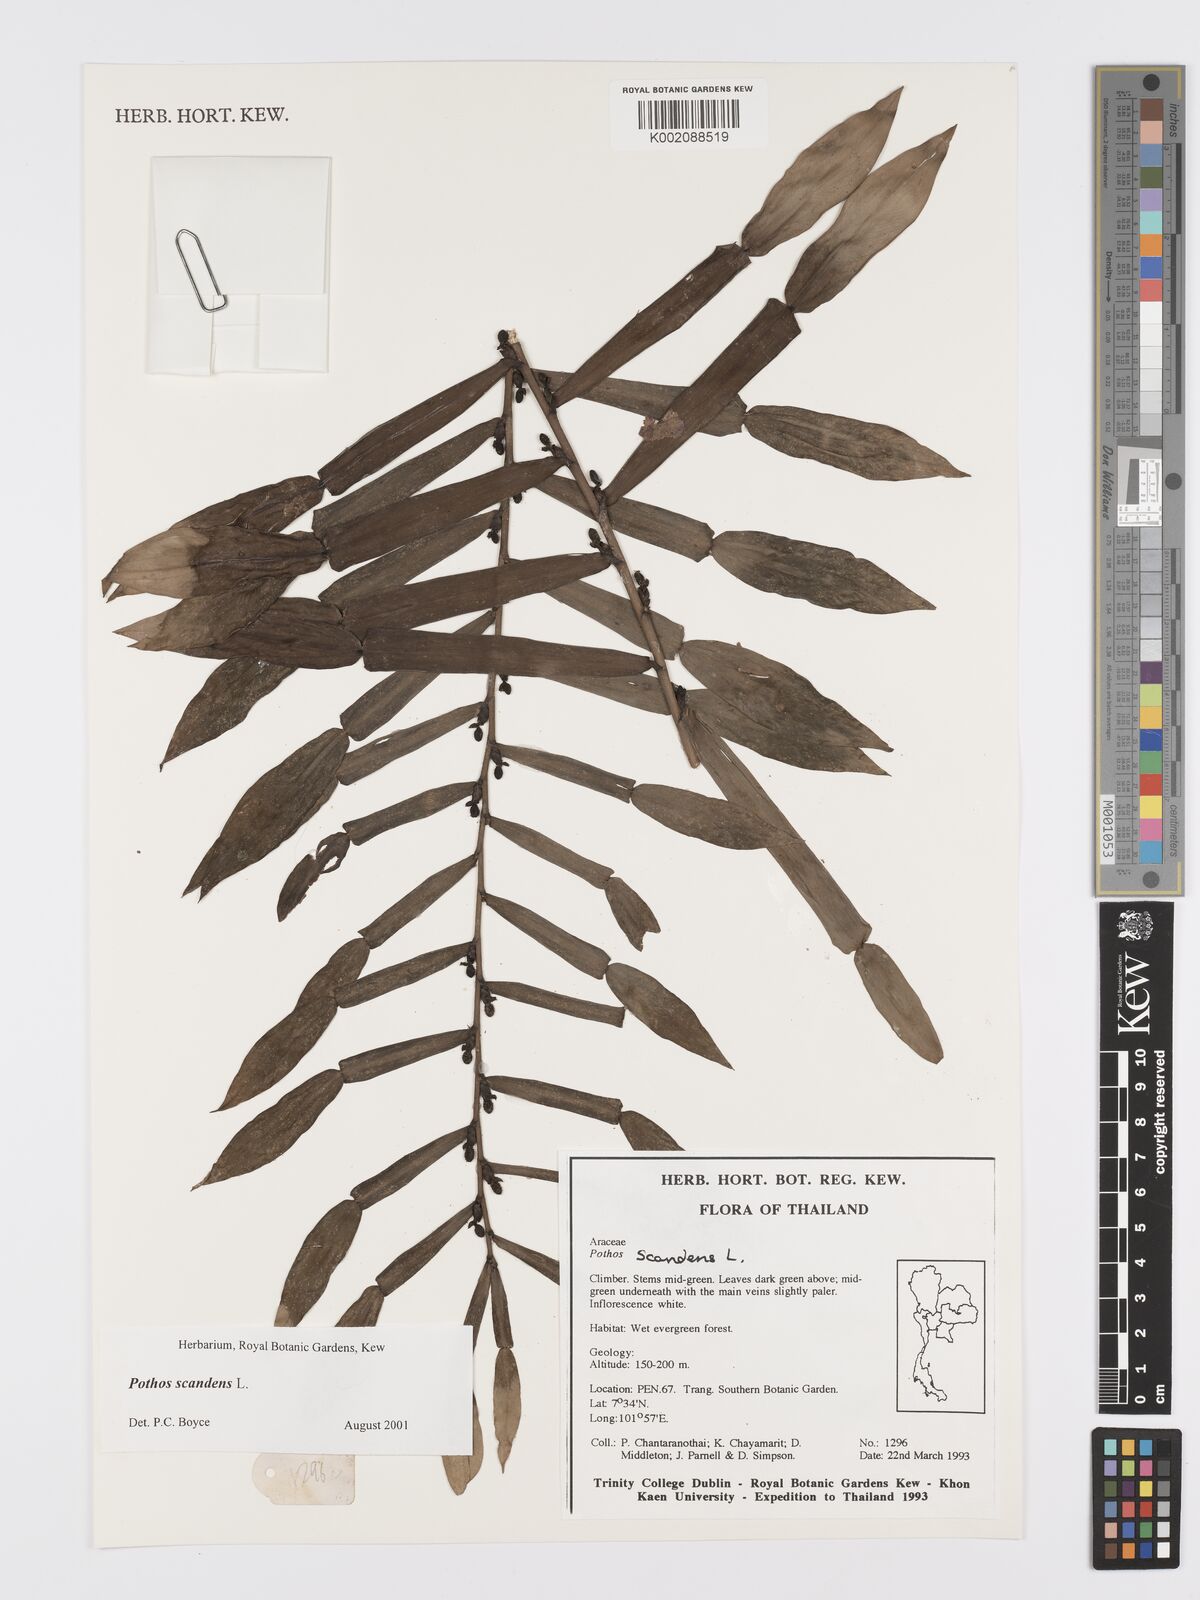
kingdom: Plantae
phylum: Tracheophyta
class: Liliopsida
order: Alismatales
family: Araceae
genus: Pothos
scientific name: Pothos scandens
